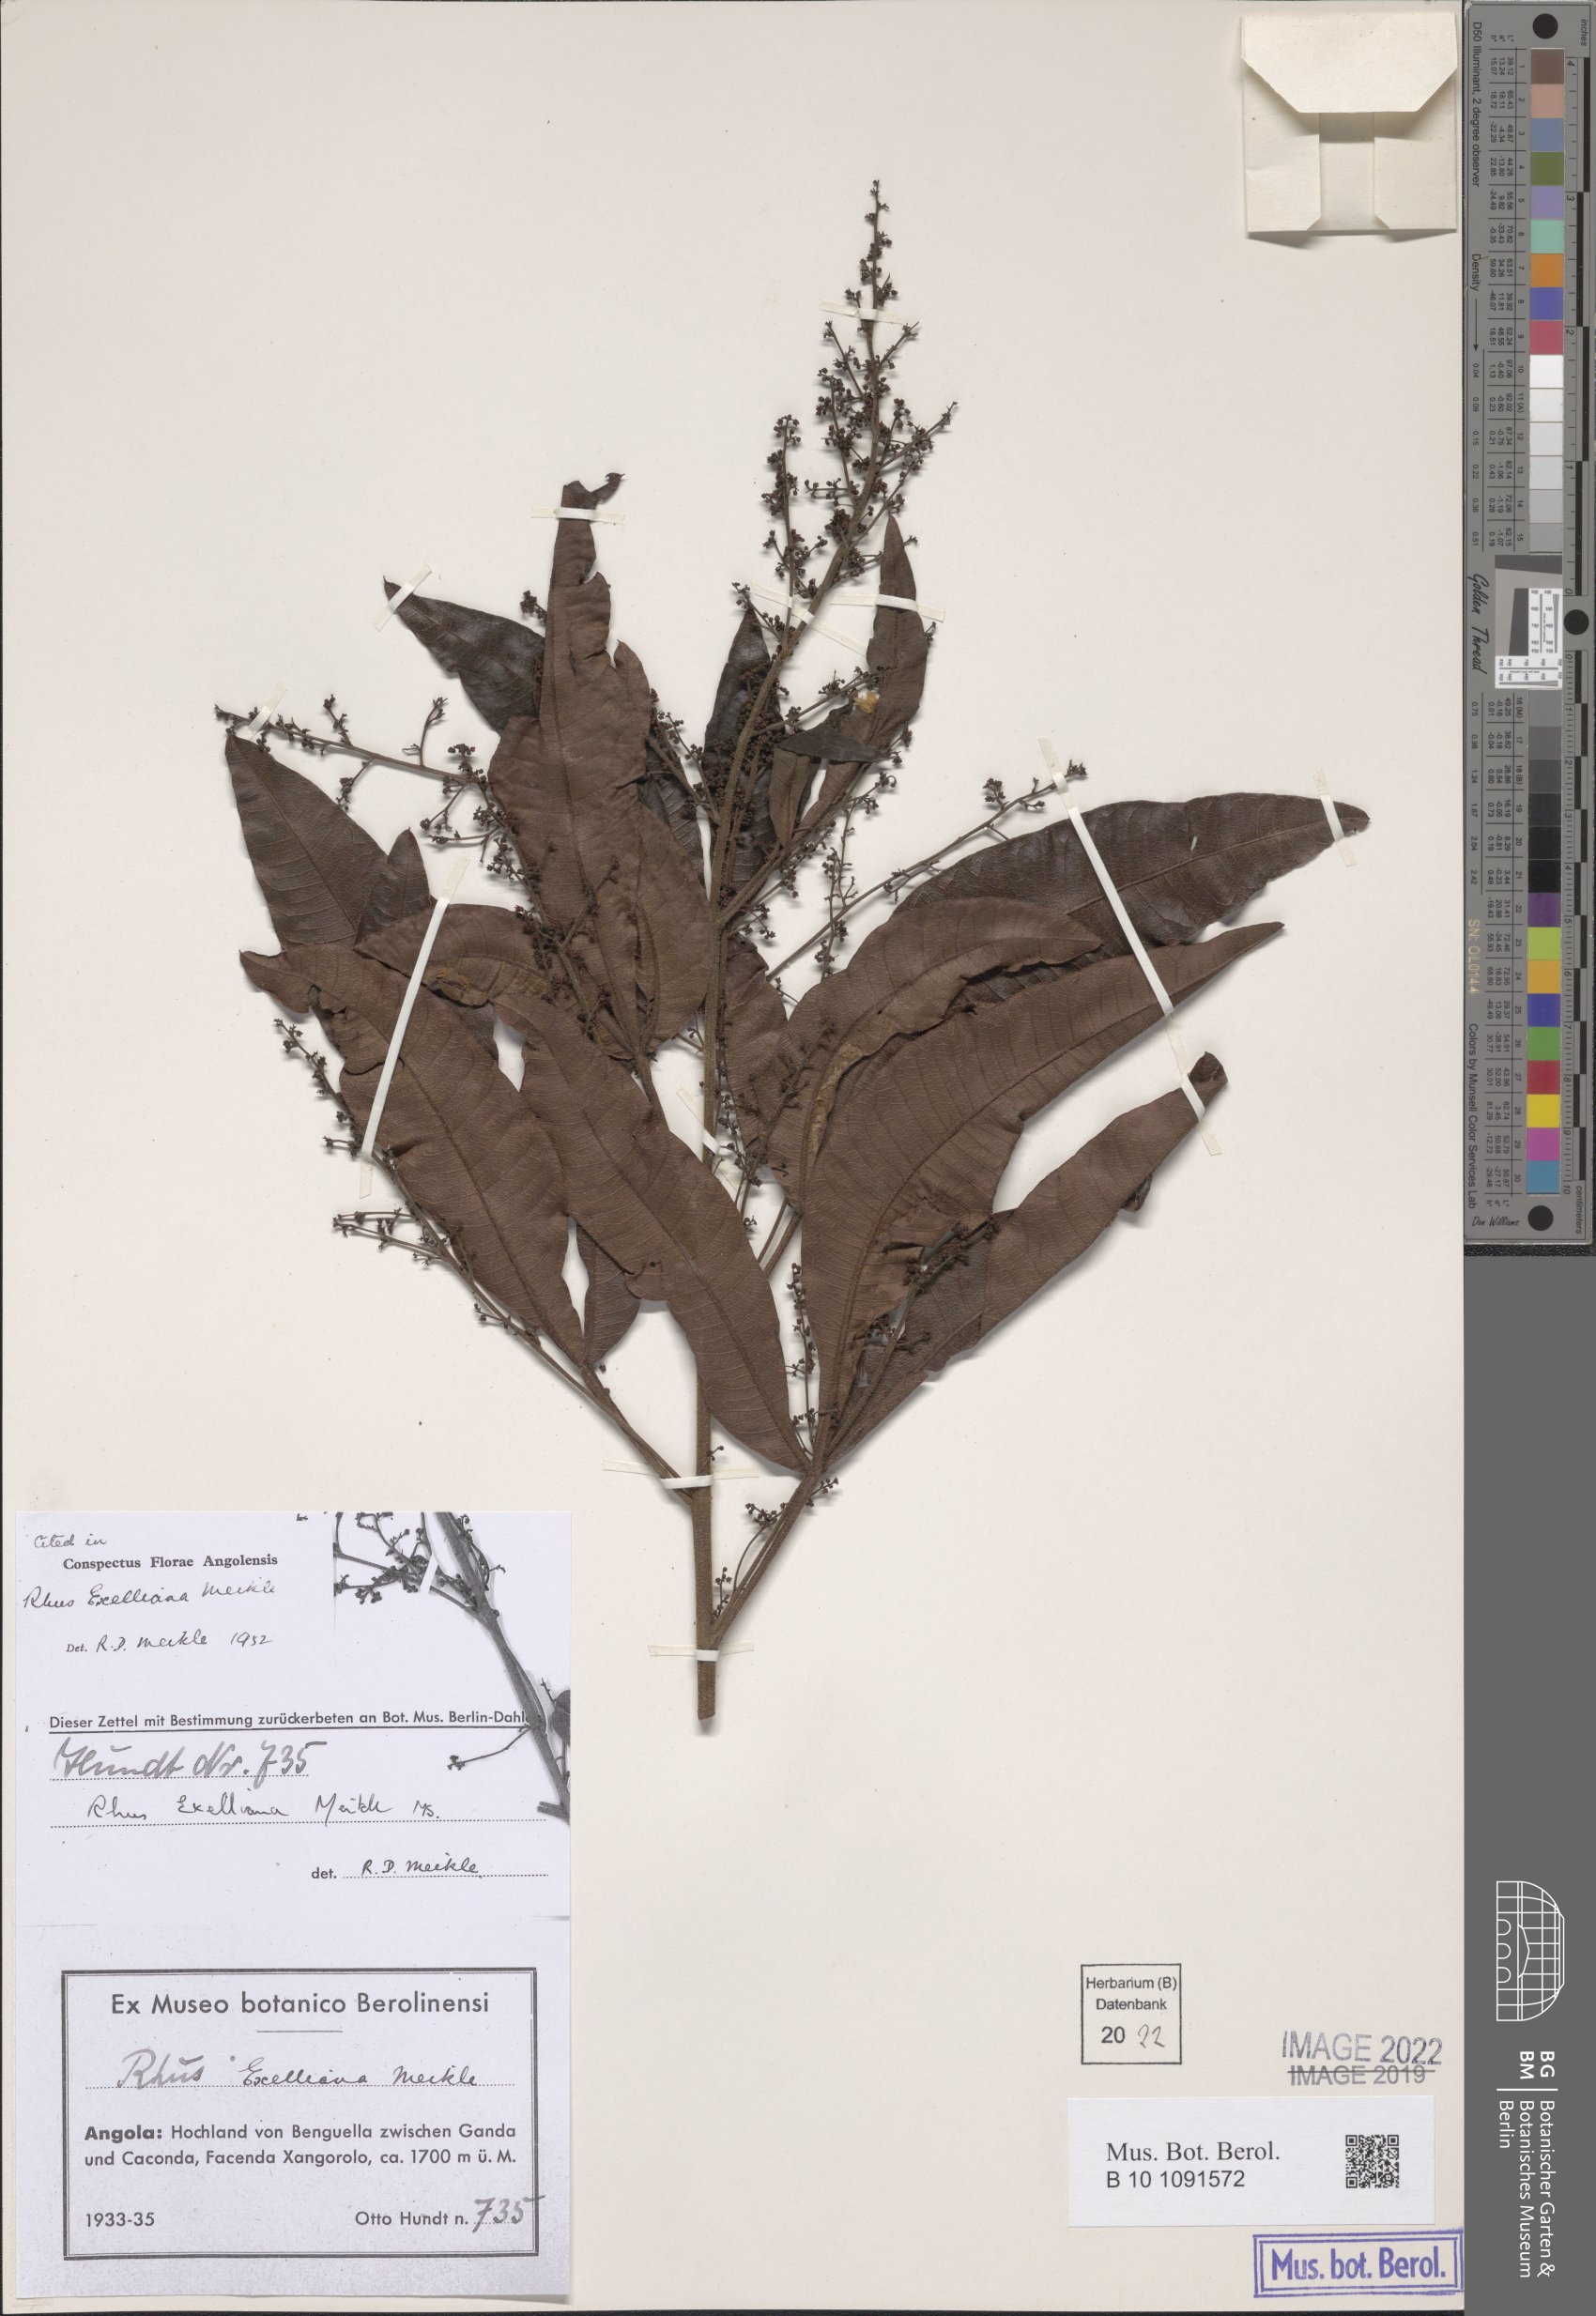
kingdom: Plantae
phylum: Tracheophyta
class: Magnoliopsida
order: Sapindales
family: Anacardiaceae
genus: Searsia
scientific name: Searsia blanda
